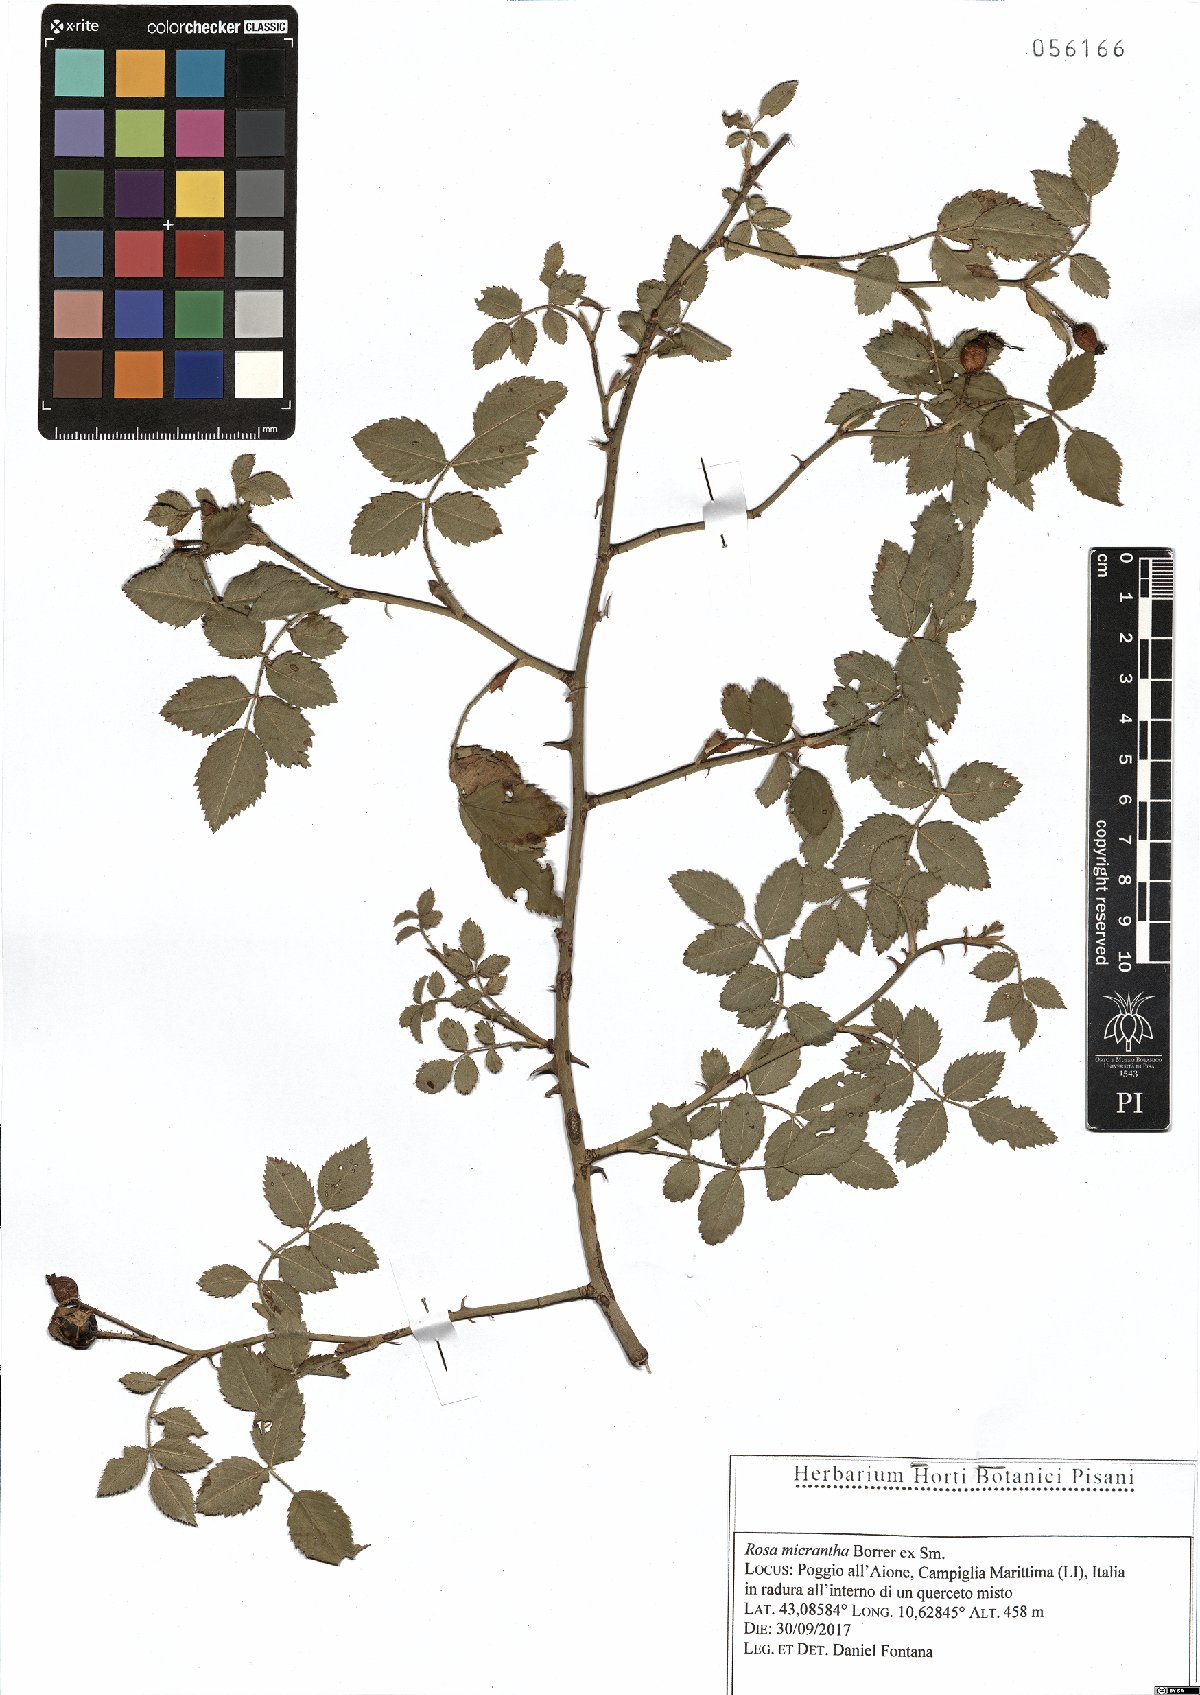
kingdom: Plantae
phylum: Tracheophyta
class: Magnoliopsida
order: Rosales
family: Rosaceae
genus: Rosa
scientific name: Rosa micrantha
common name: Small-flowered sweet-briar
